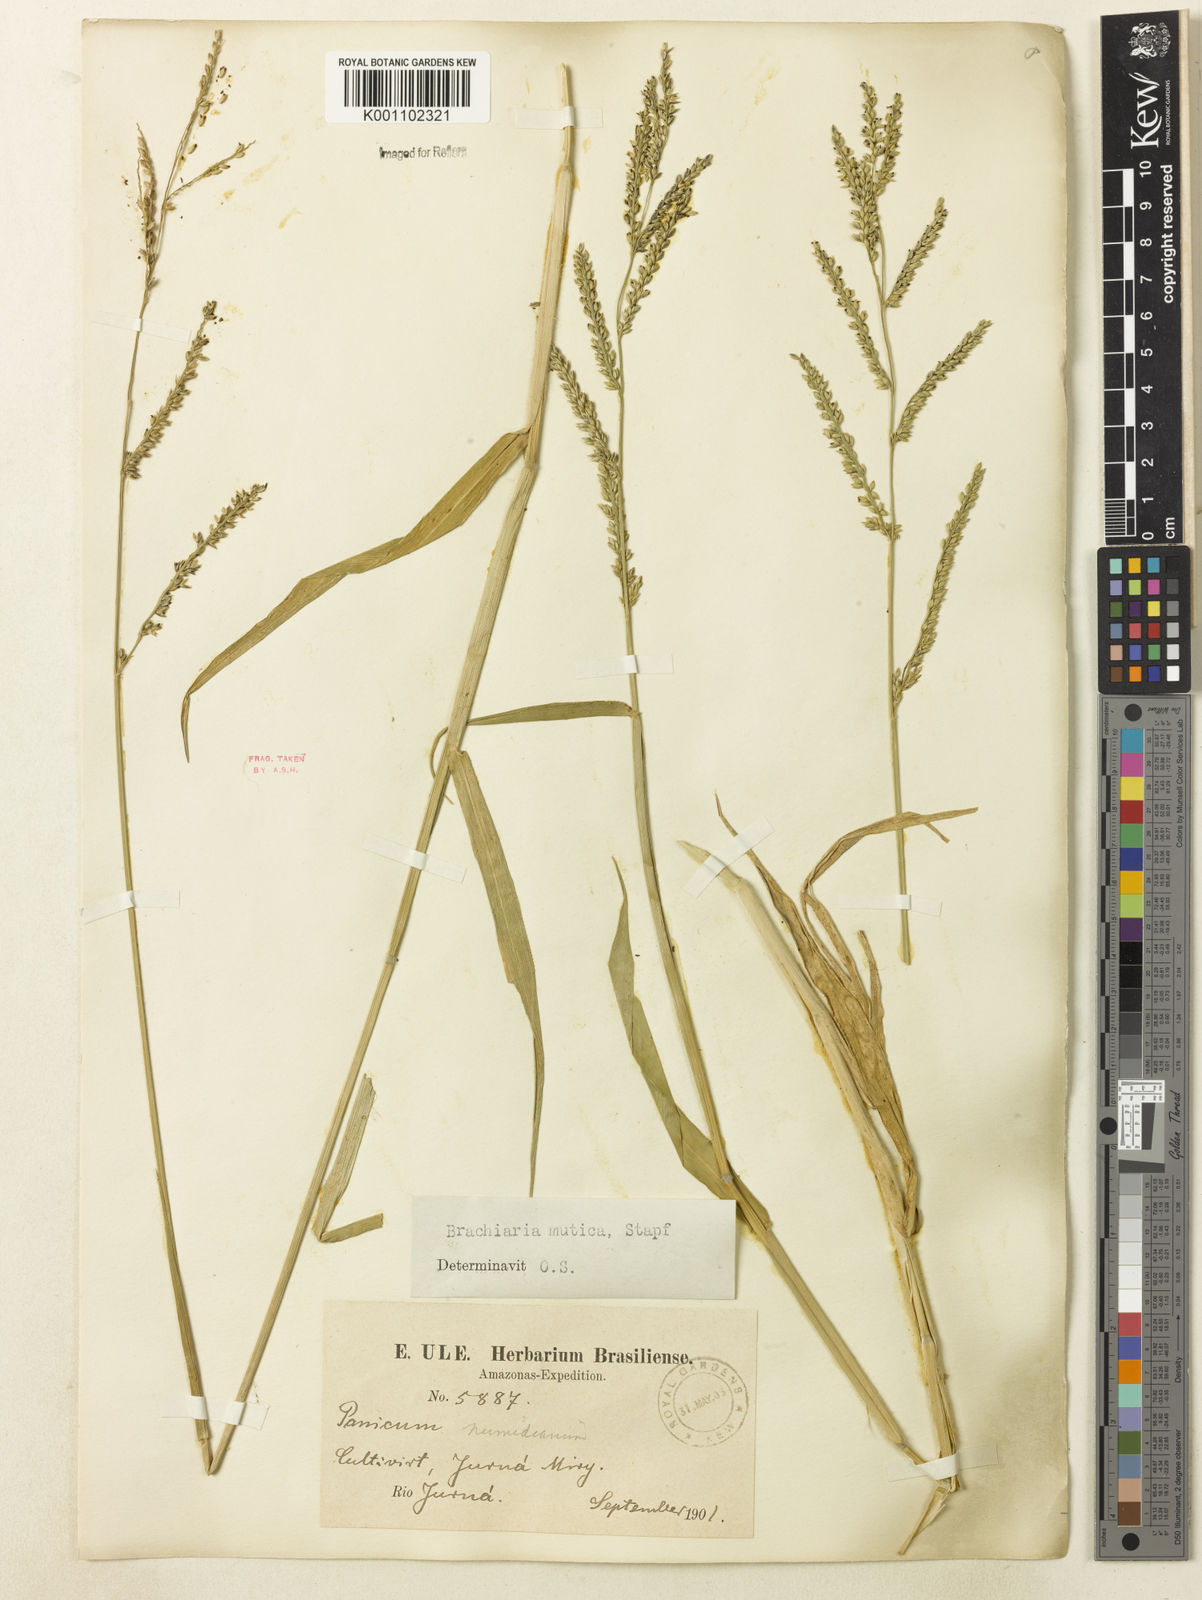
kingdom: Plantae
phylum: Tracheophyta
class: Liliopsida
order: Poales
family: Poaceae
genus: Urochloa
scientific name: Urochloa mutica
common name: Para grass
